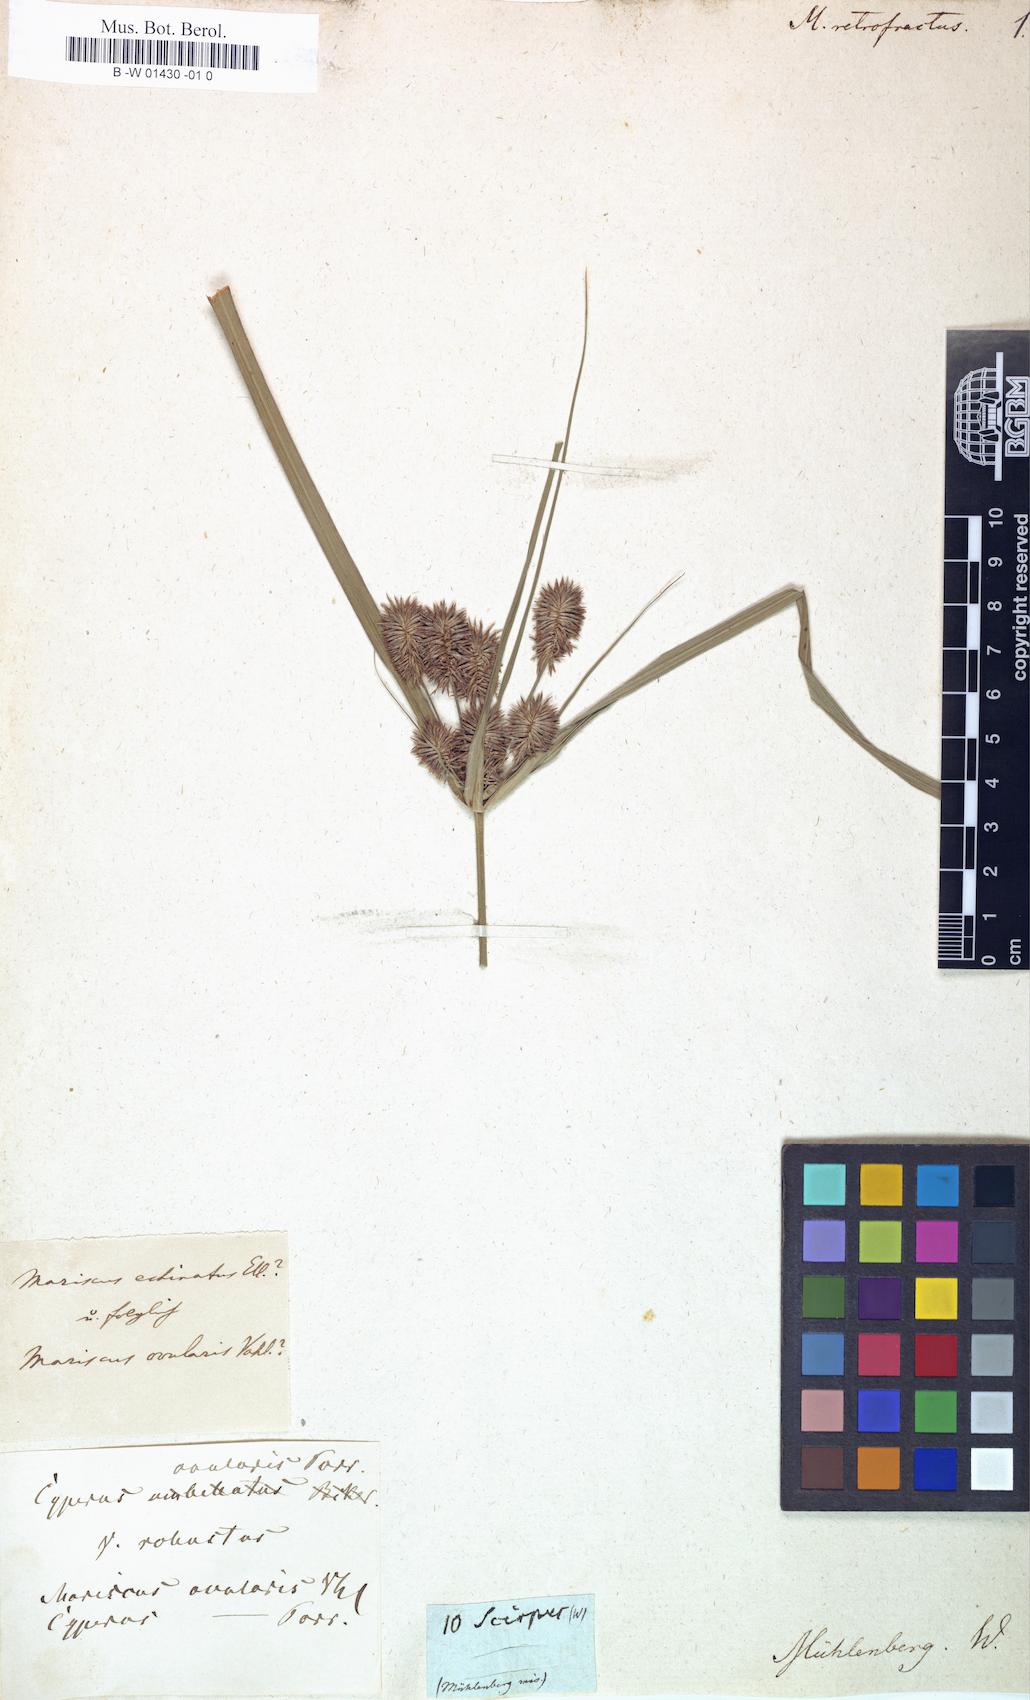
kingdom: Plantae
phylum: Tracheophyta
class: Liliopsida
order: Poales
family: Cyperaceae
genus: Cyperus
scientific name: Cyperus retroflexus
